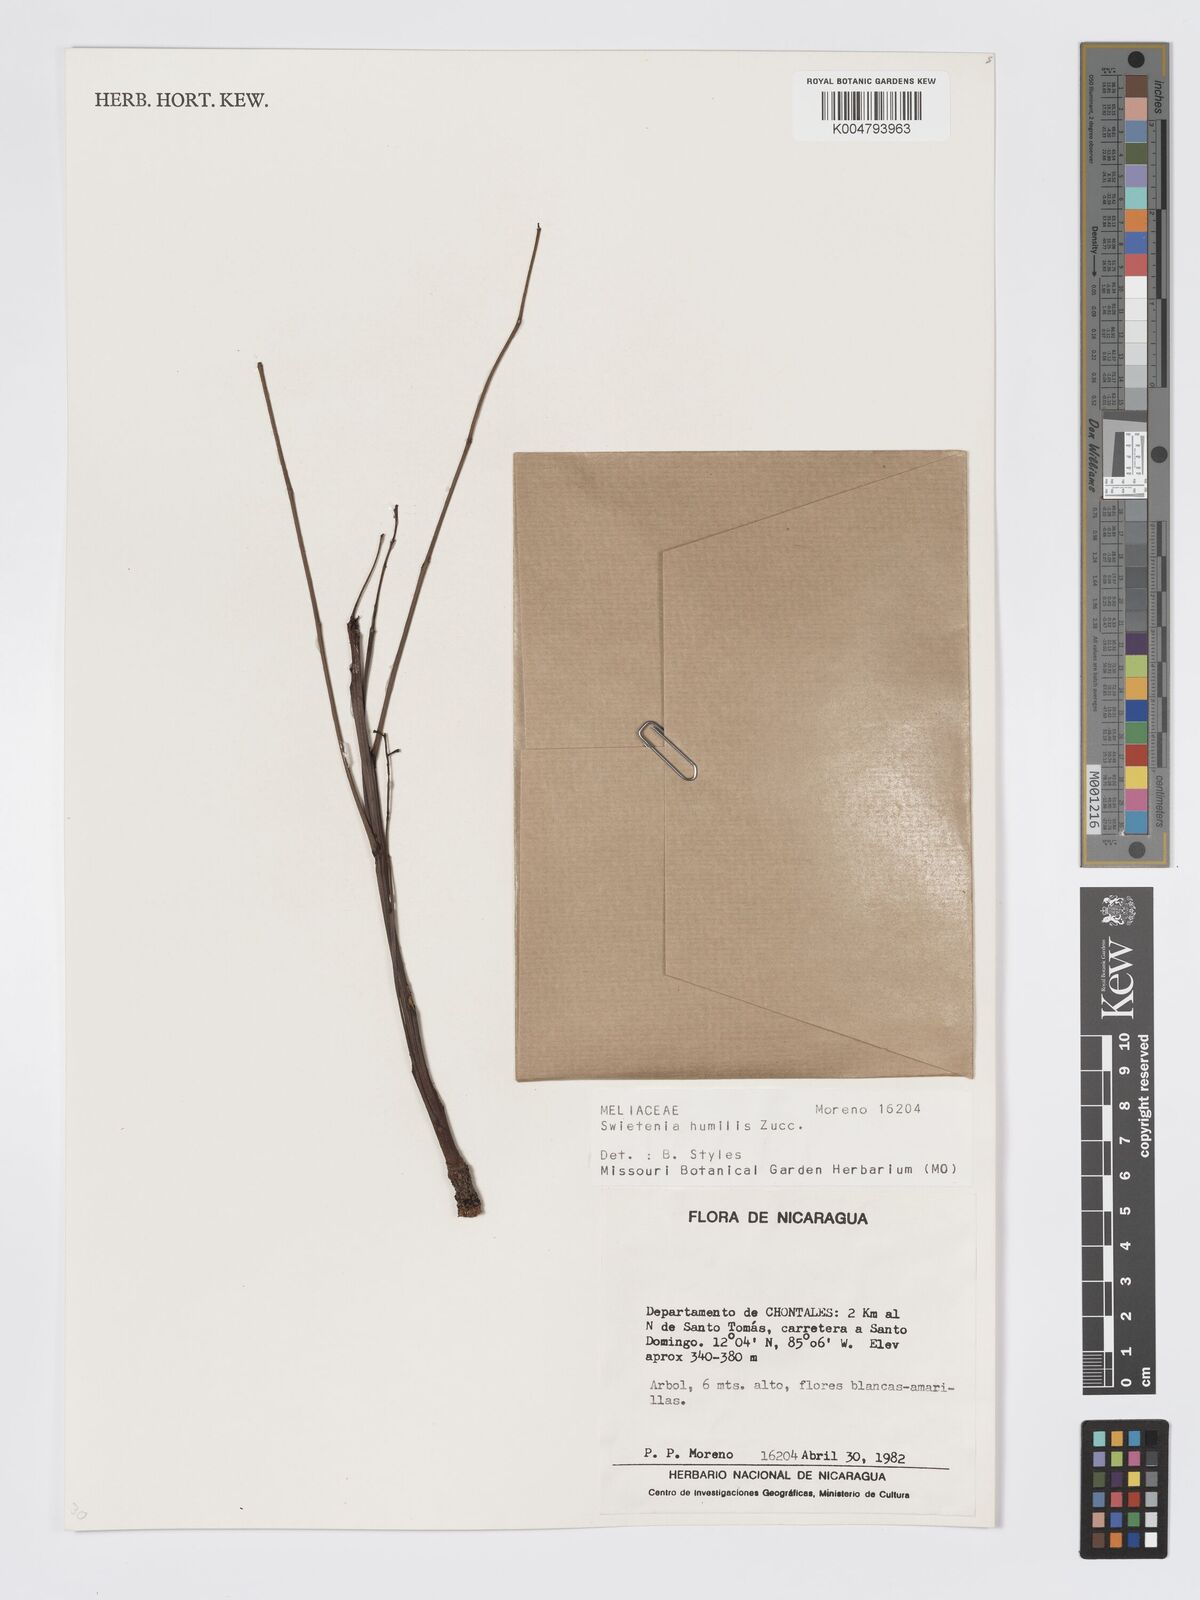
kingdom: Plantae
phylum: Tracheophyta
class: Magnoliopsida
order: Sapindales
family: Meliaceae
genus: Swietenia
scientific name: Swietenia humilis
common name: Pacific coast mahogany
